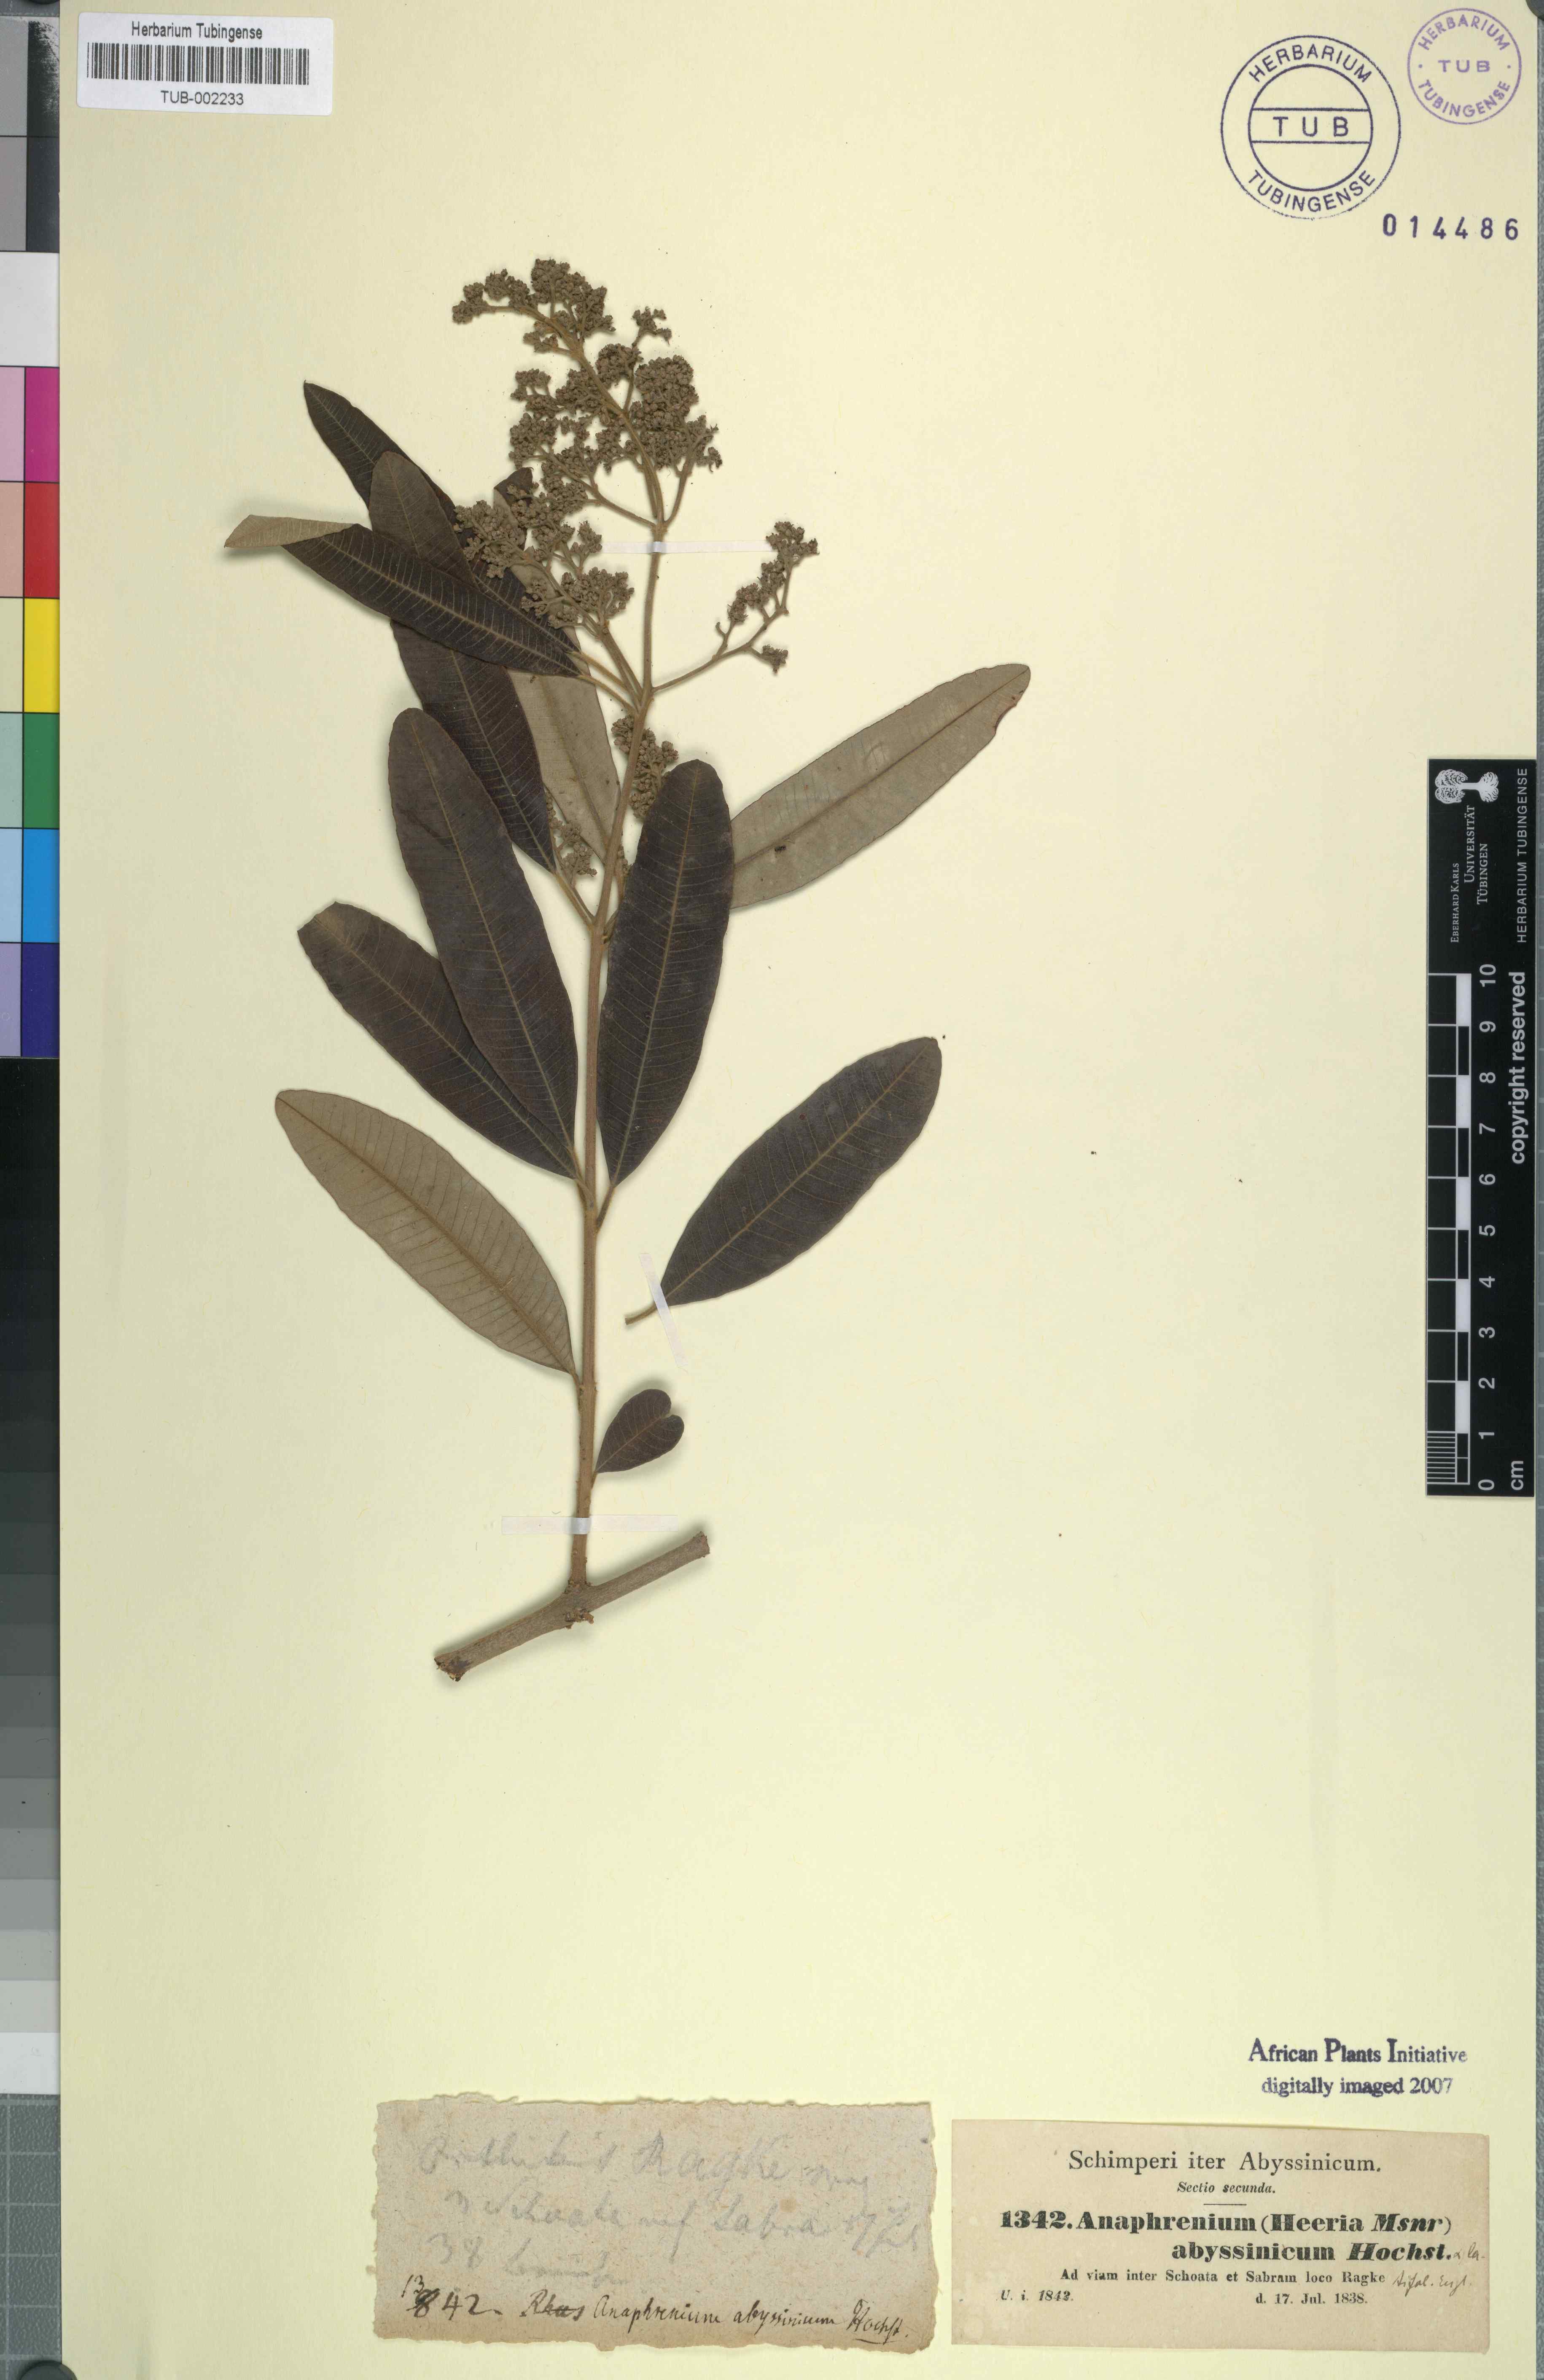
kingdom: Plantae
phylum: Tracheophyta
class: Magnoliopsida
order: Sapindales
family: Anacardiaceae
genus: Ozoroa
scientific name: Ozoroa insignis
